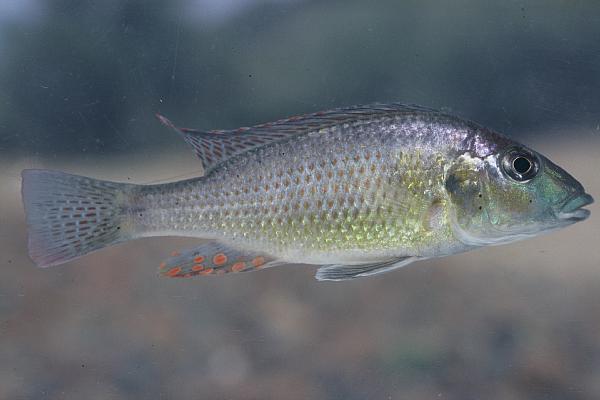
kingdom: Animalia
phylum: Chordata
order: Perciformes
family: Cichlidae
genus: Thoracochromis
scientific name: Thoracochromis buysi
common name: Namib happy
